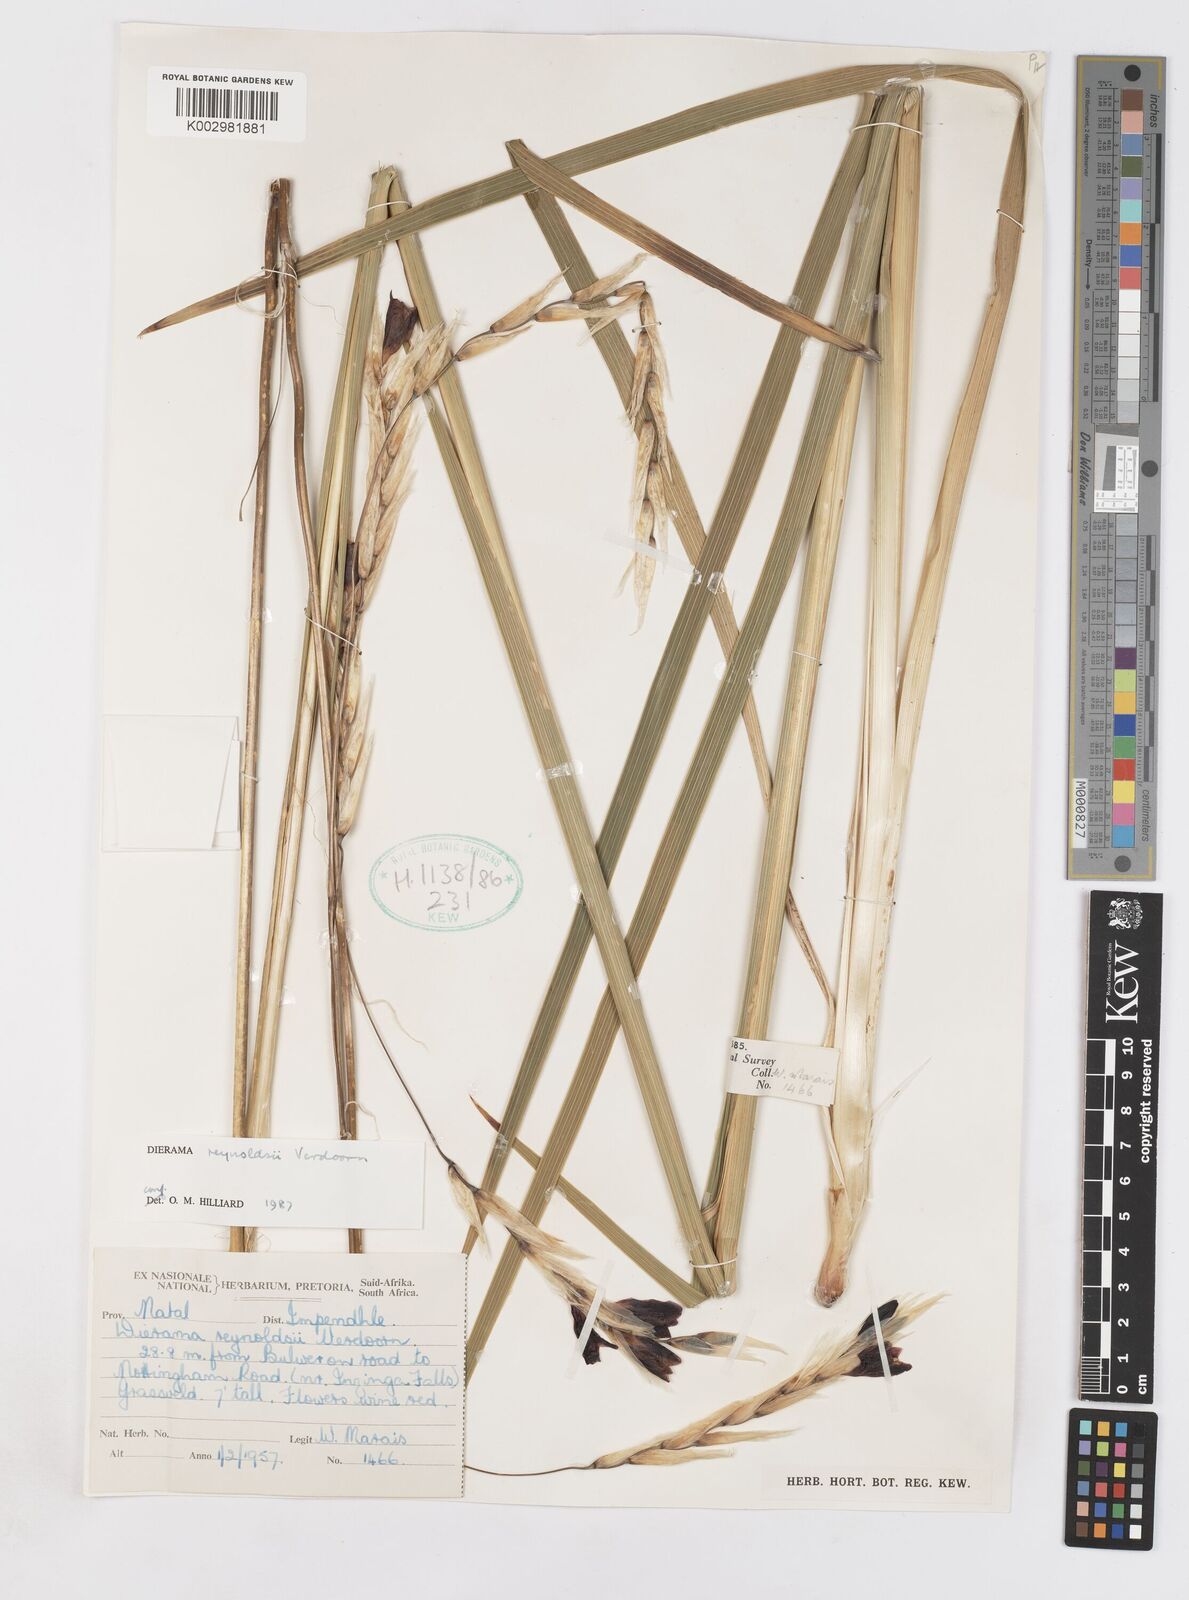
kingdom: Plantae
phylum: Tracheophyta
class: Liliopsida
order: Asparagales
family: Iridaceae
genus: Dierama
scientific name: Dierama reynoldsii
